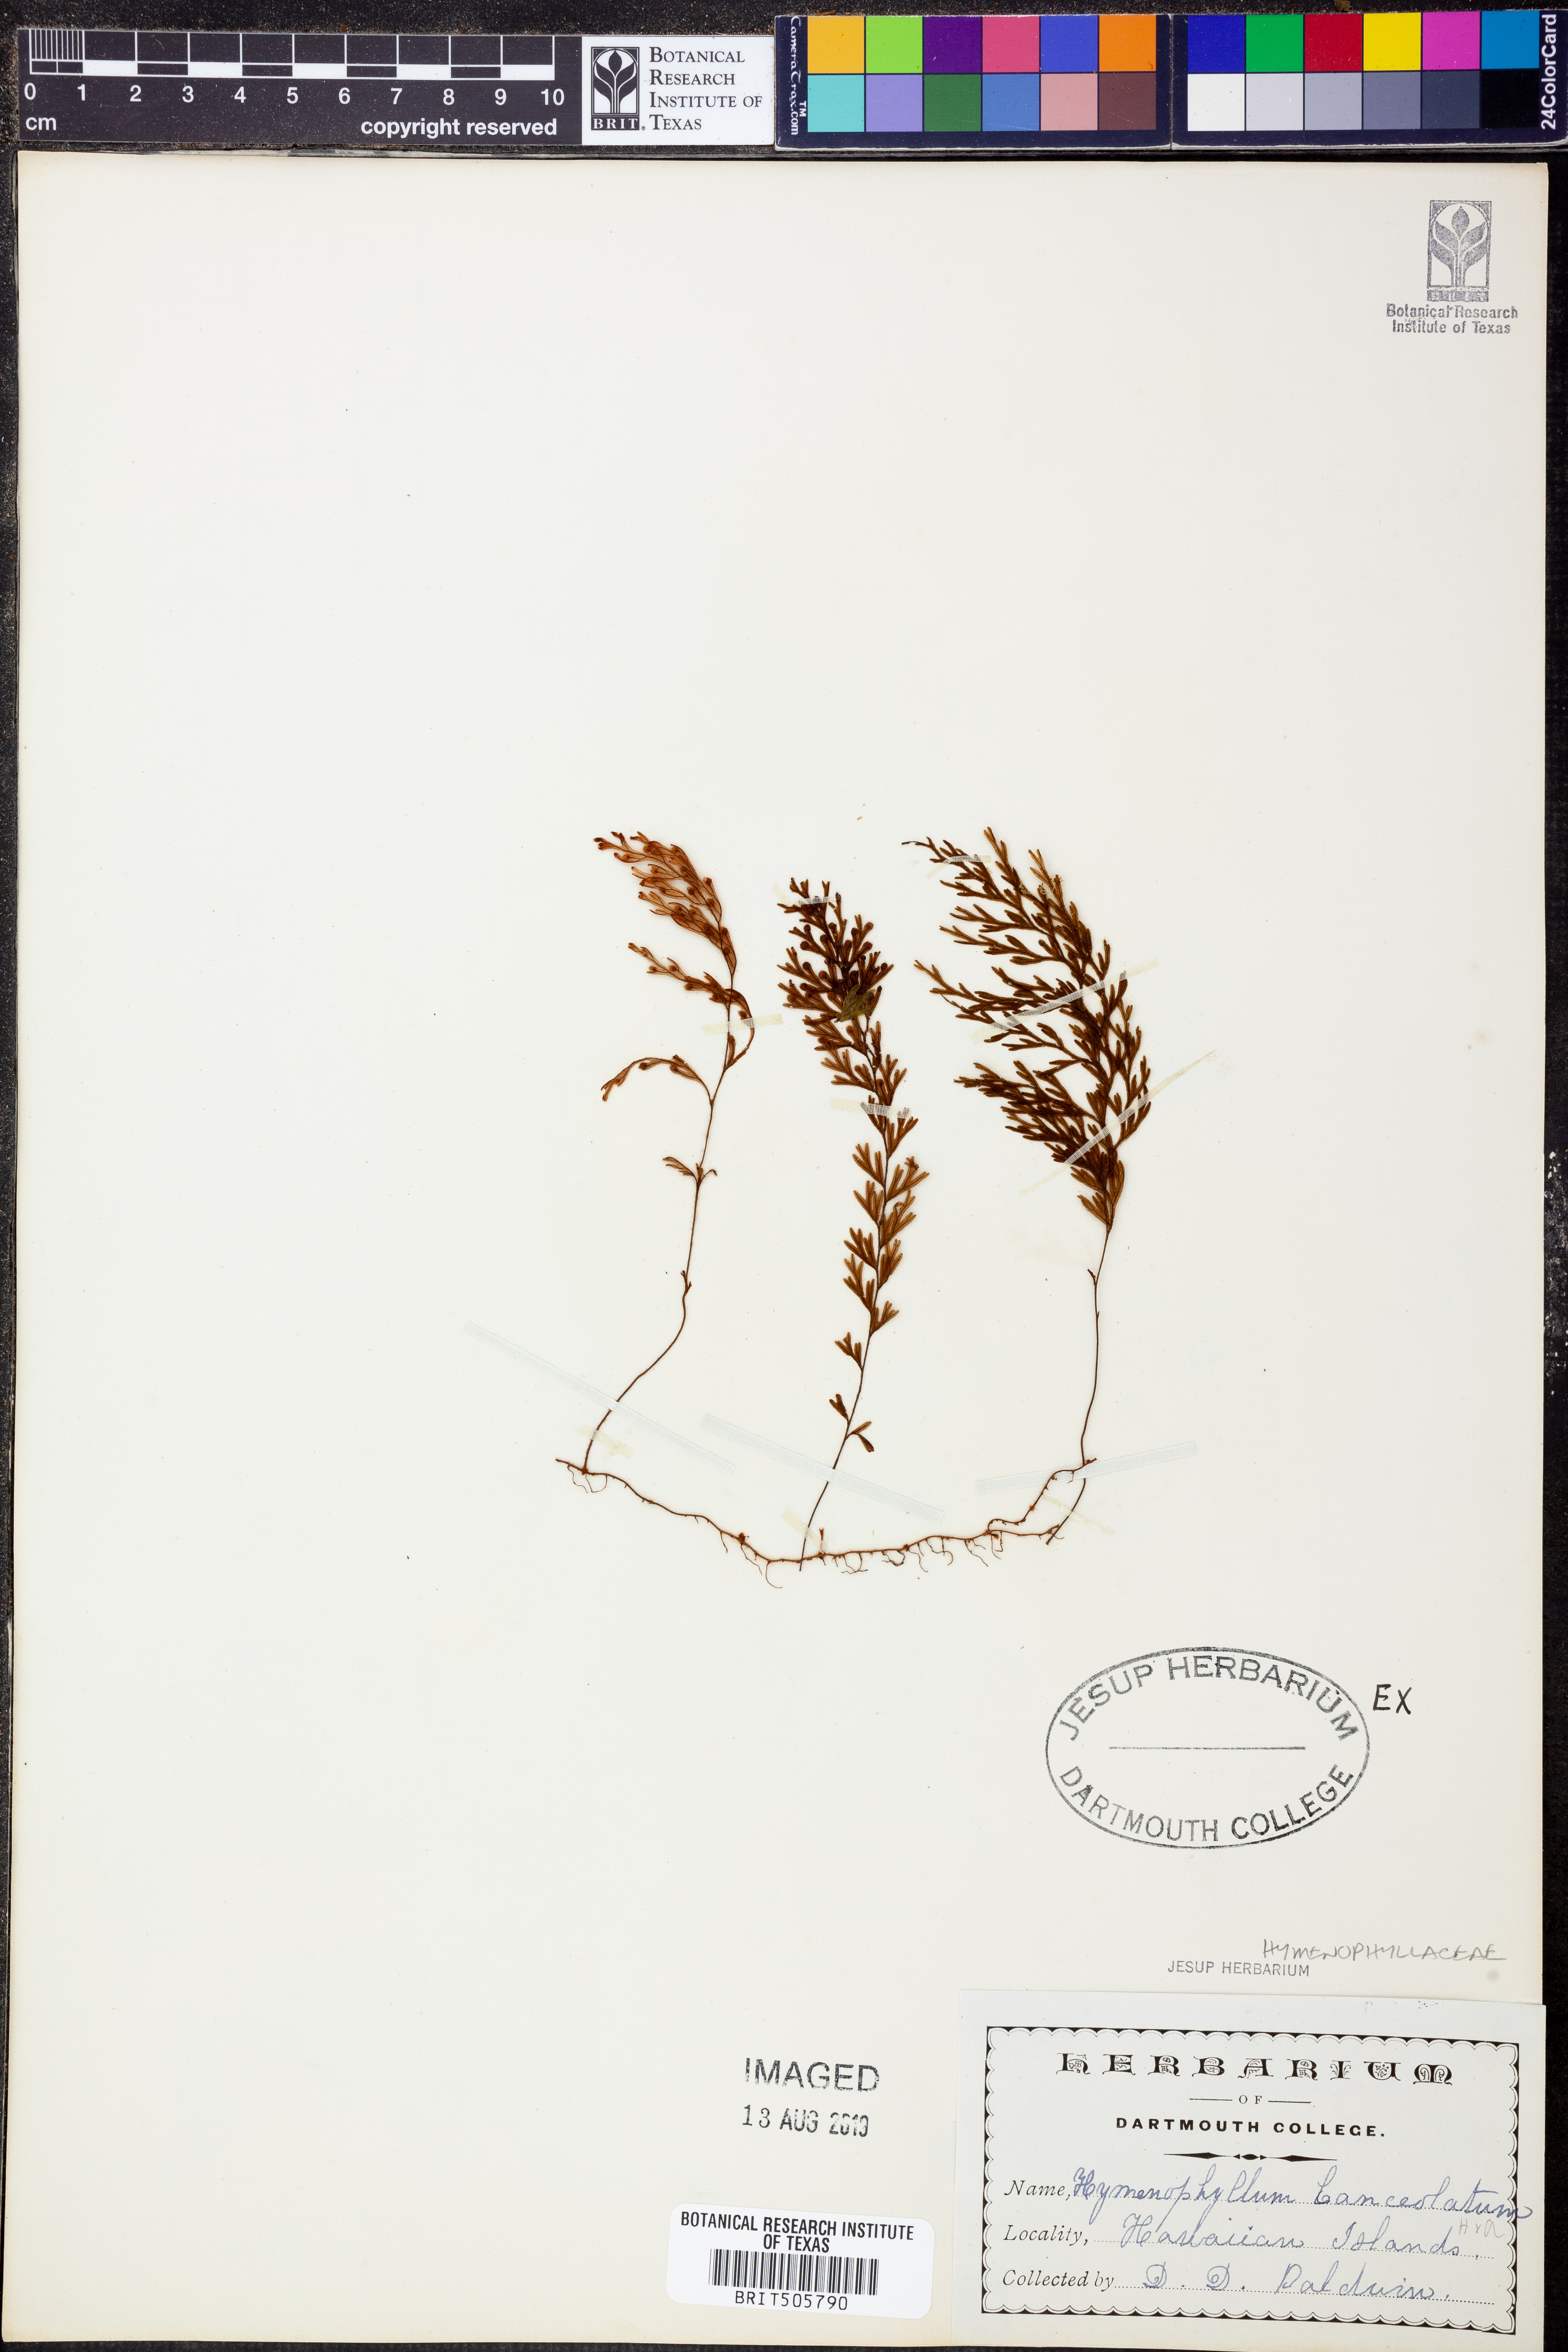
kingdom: Plantae
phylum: Tracheophyta
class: Polypodiopsida
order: Hymenophyllales
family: Hymenophyllaceae
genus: Hymenophyllum
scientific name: Hymenophyllum lanceolatum
